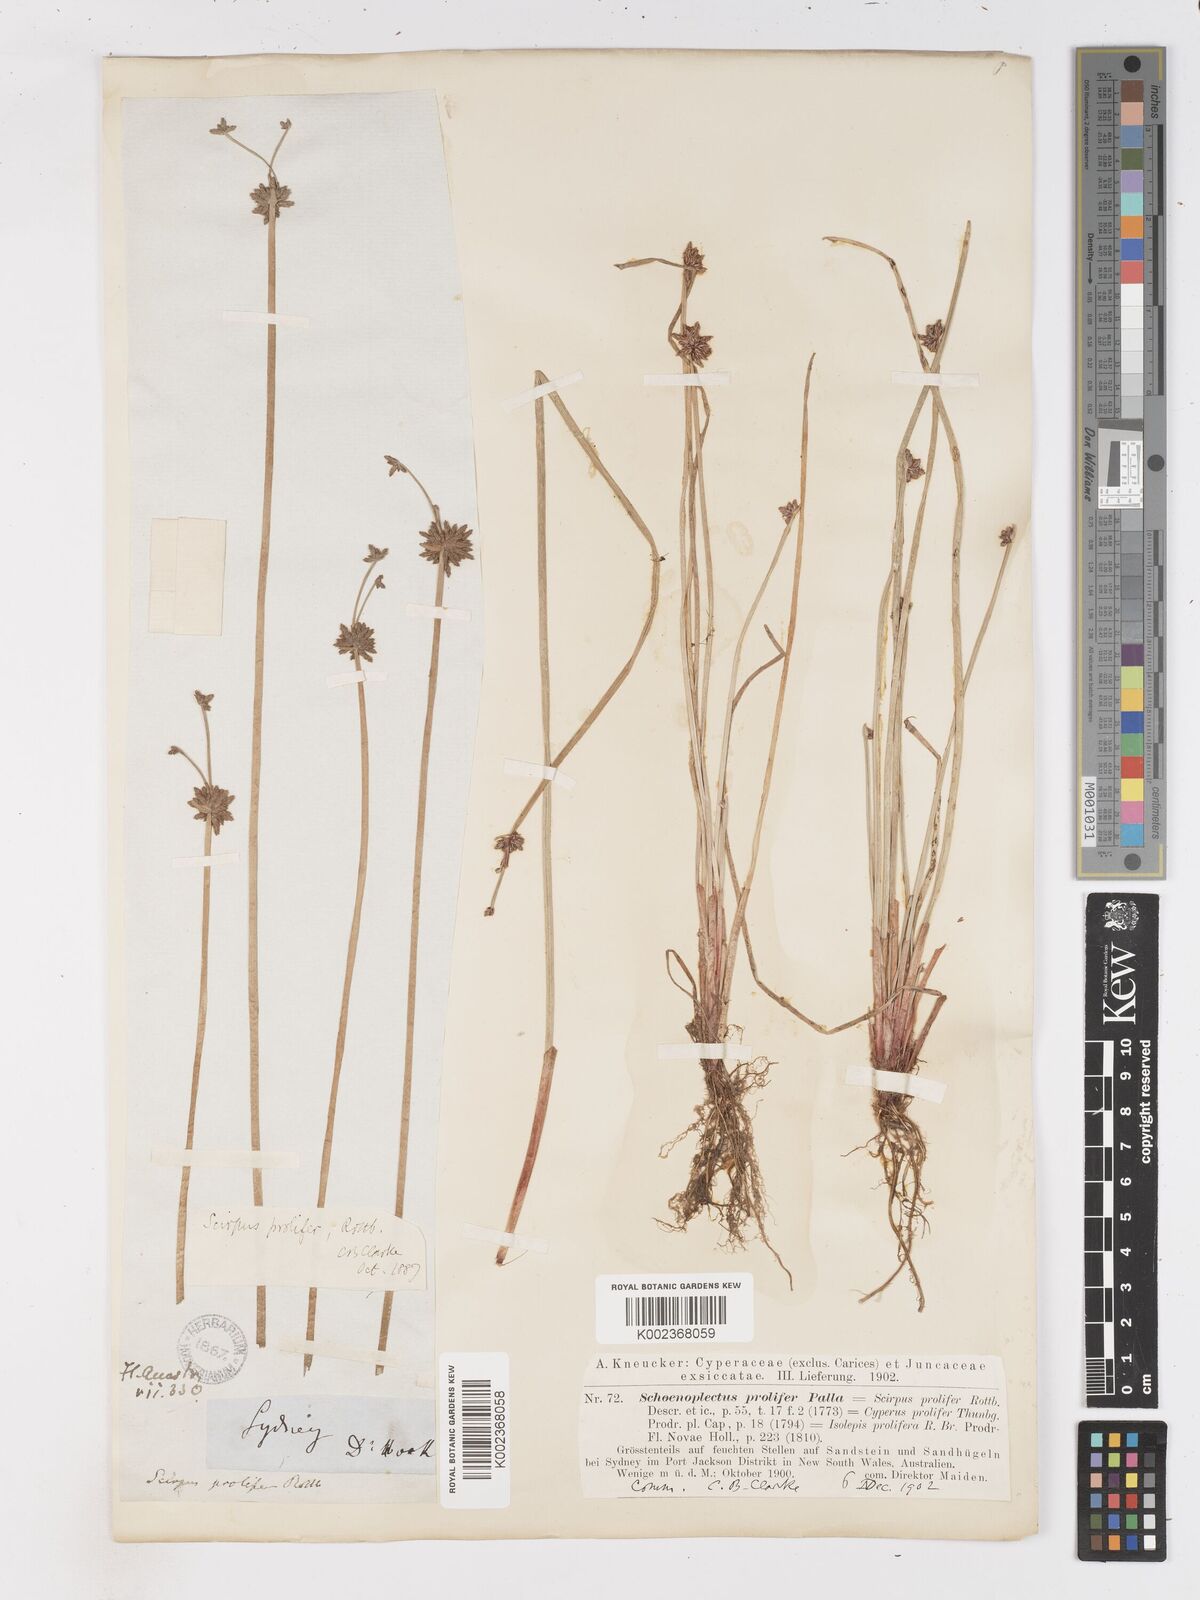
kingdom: Plantae
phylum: Tracheophyta
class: Liliopsida
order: Poales
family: Cyperaceae
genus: Isolepis
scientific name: Isolepis prolifera
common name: Proliferating bulrush
